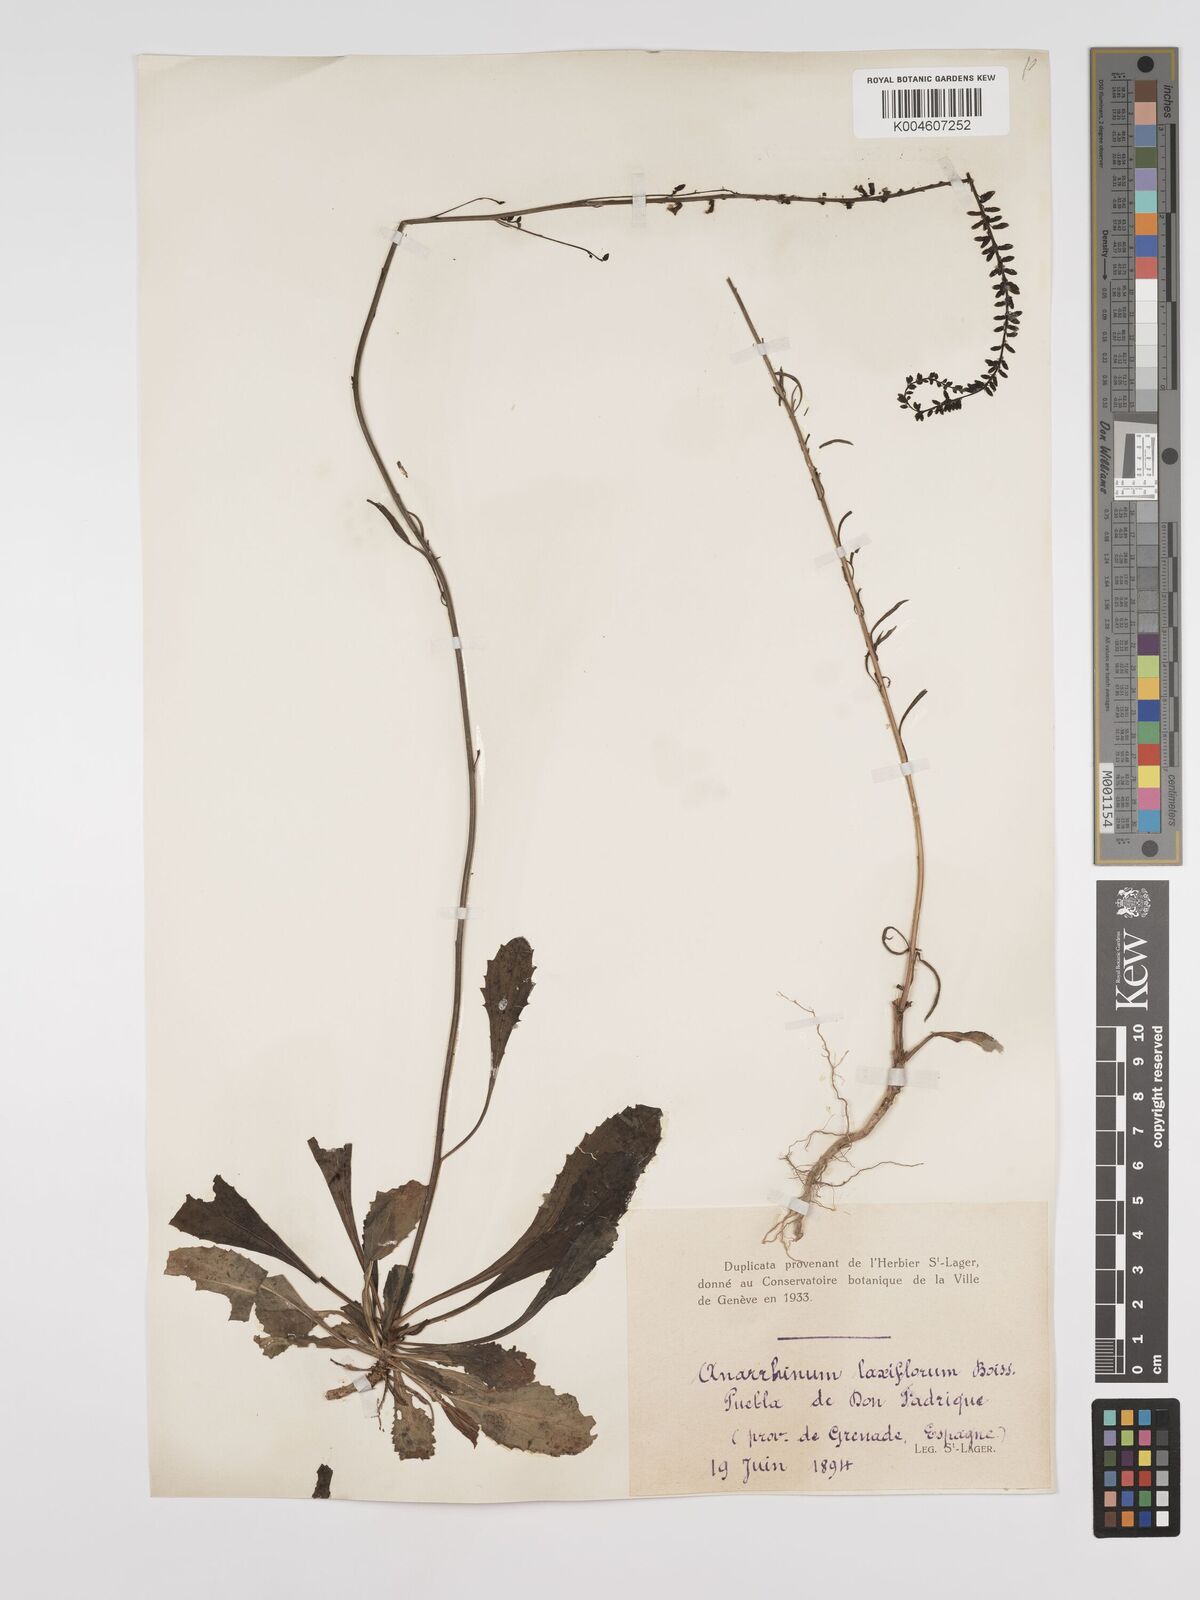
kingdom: Plantae
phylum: Tracheophyta
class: Magnoliopsida
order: Lamiales
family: Plantaginaceae
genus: Anarrhinum
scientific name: Anarrhinum laxiflorum
